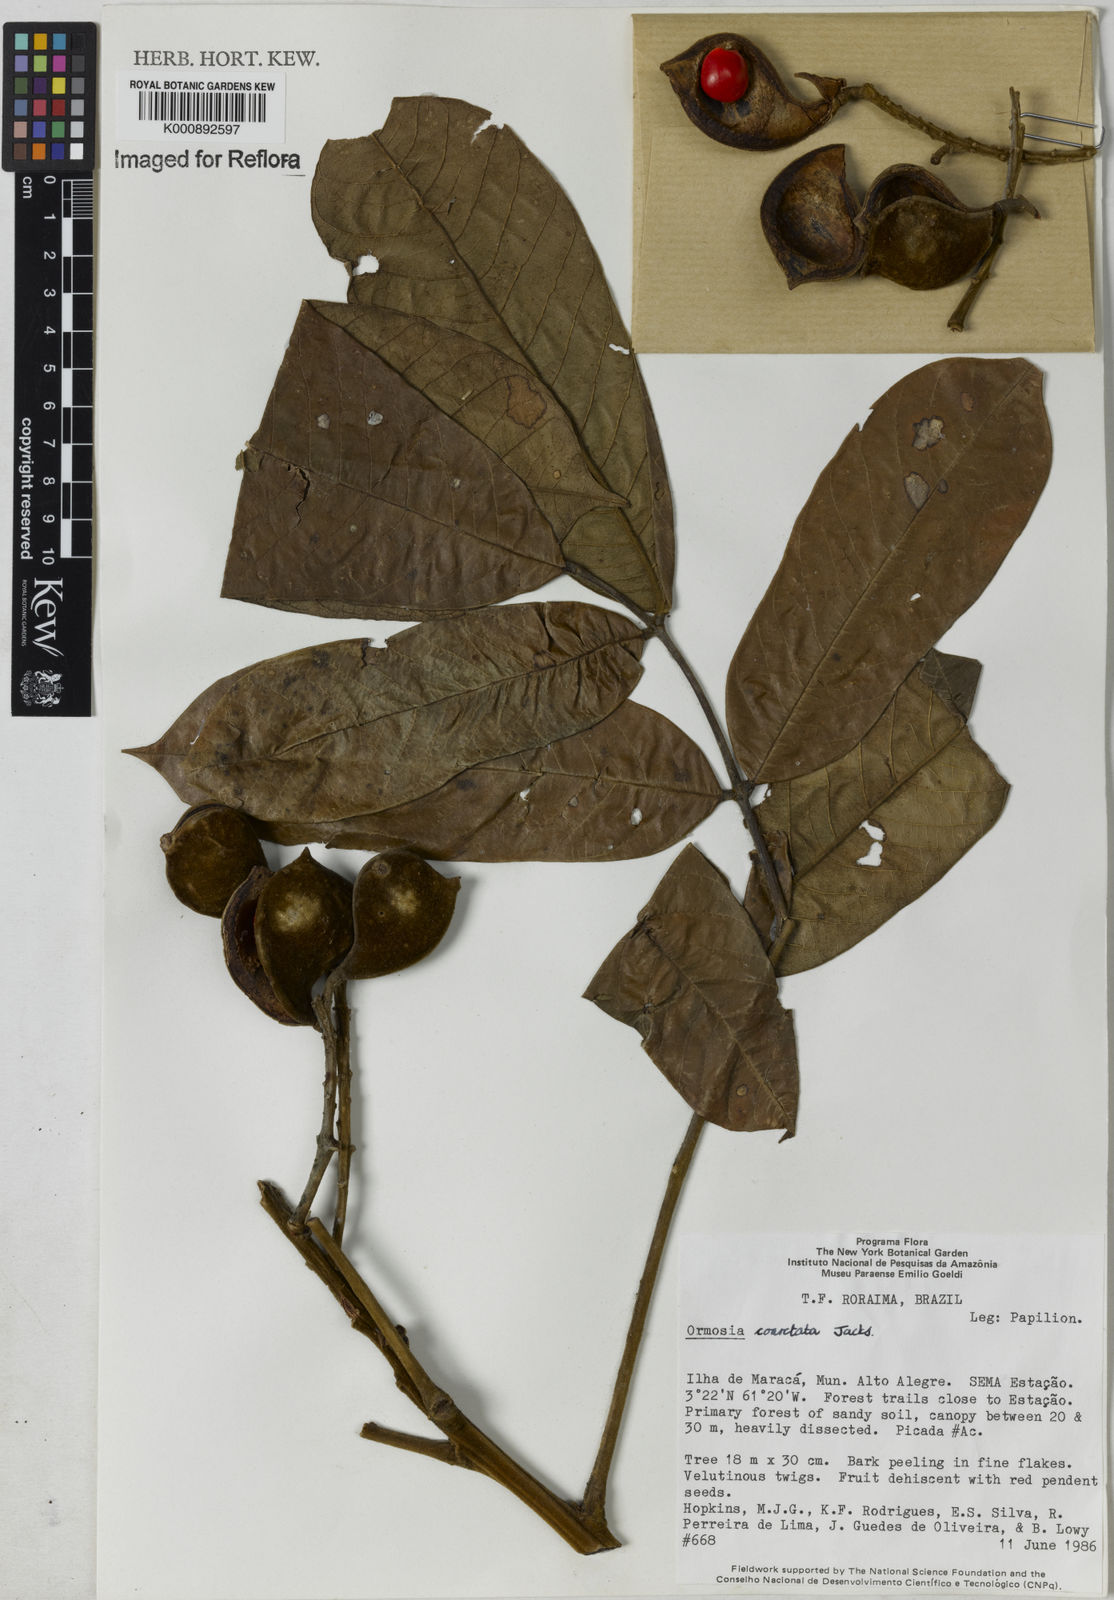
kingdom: Plantae
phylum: Tracheophyta
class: Magnoliopsida
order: Fabales
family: Fabaceae
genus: Ormosia
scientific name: Ormosia coarctata
